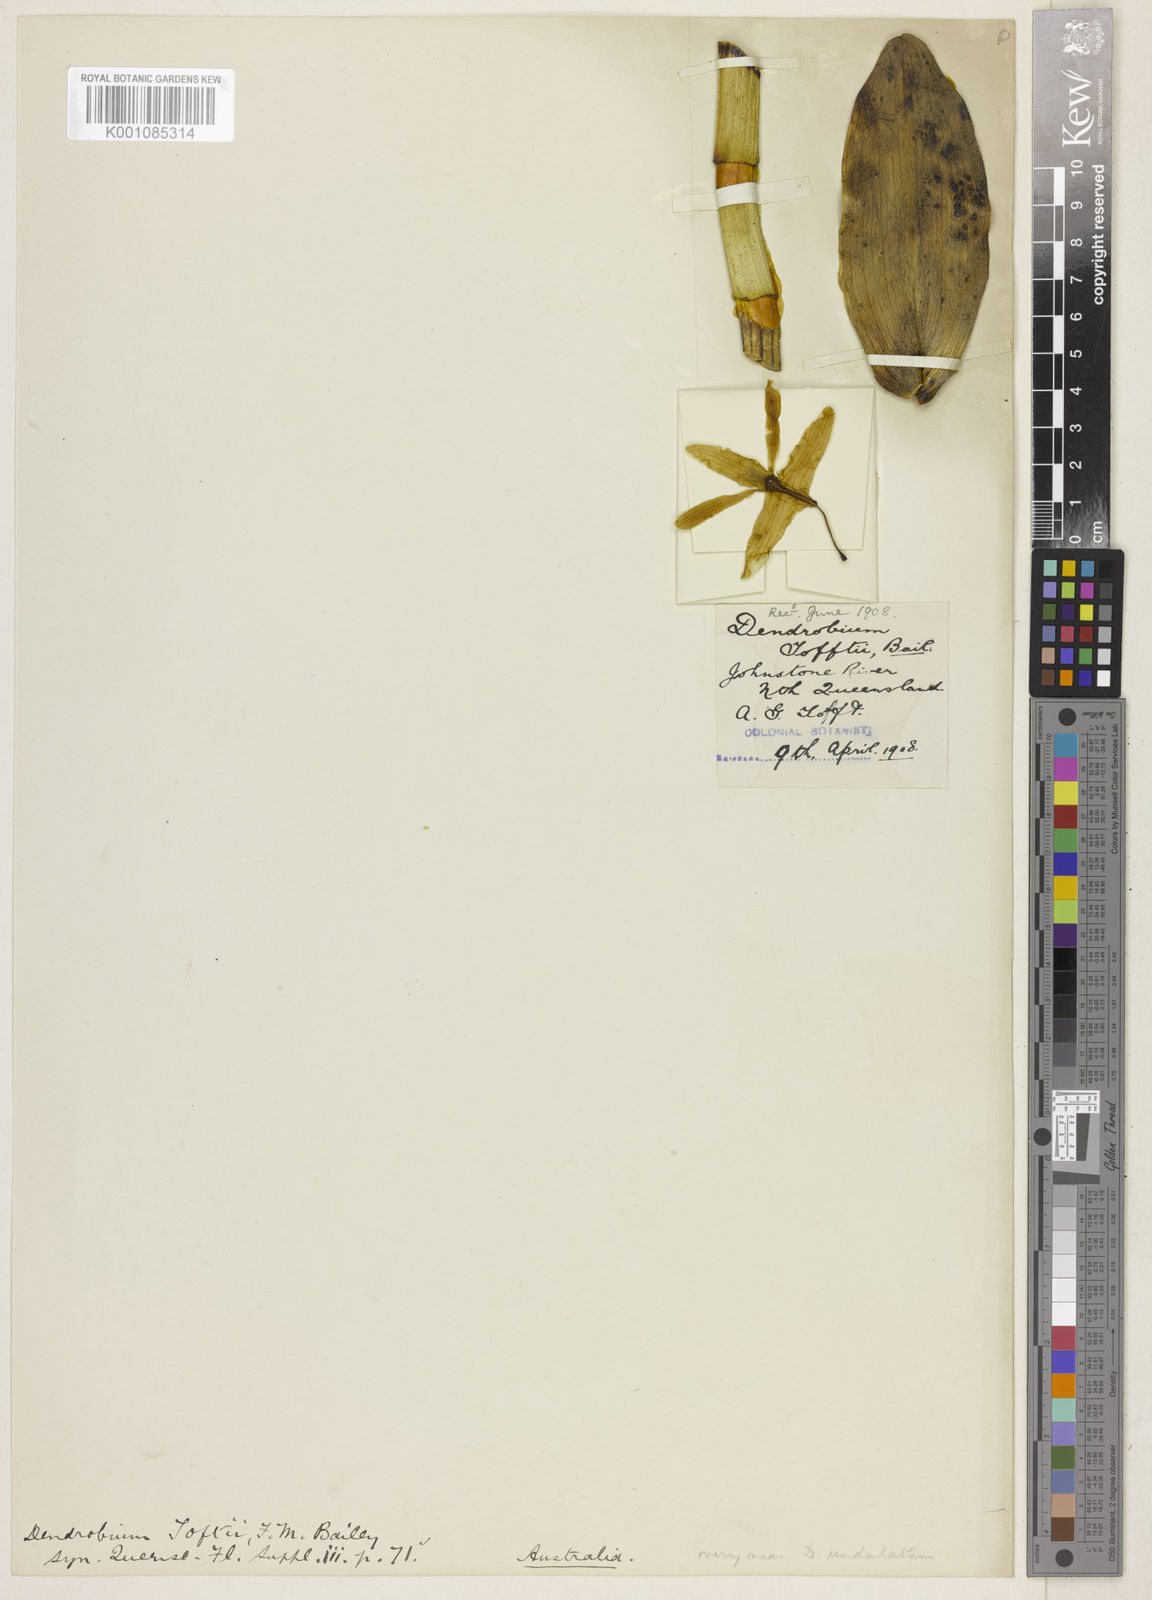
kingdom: Plantae
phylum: Tracheophyta
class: Liliopsida
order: Asparagales
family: Orchidaceae
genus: Dendrobium
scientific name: Dendrobium nindii
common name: Blue antler orchid
